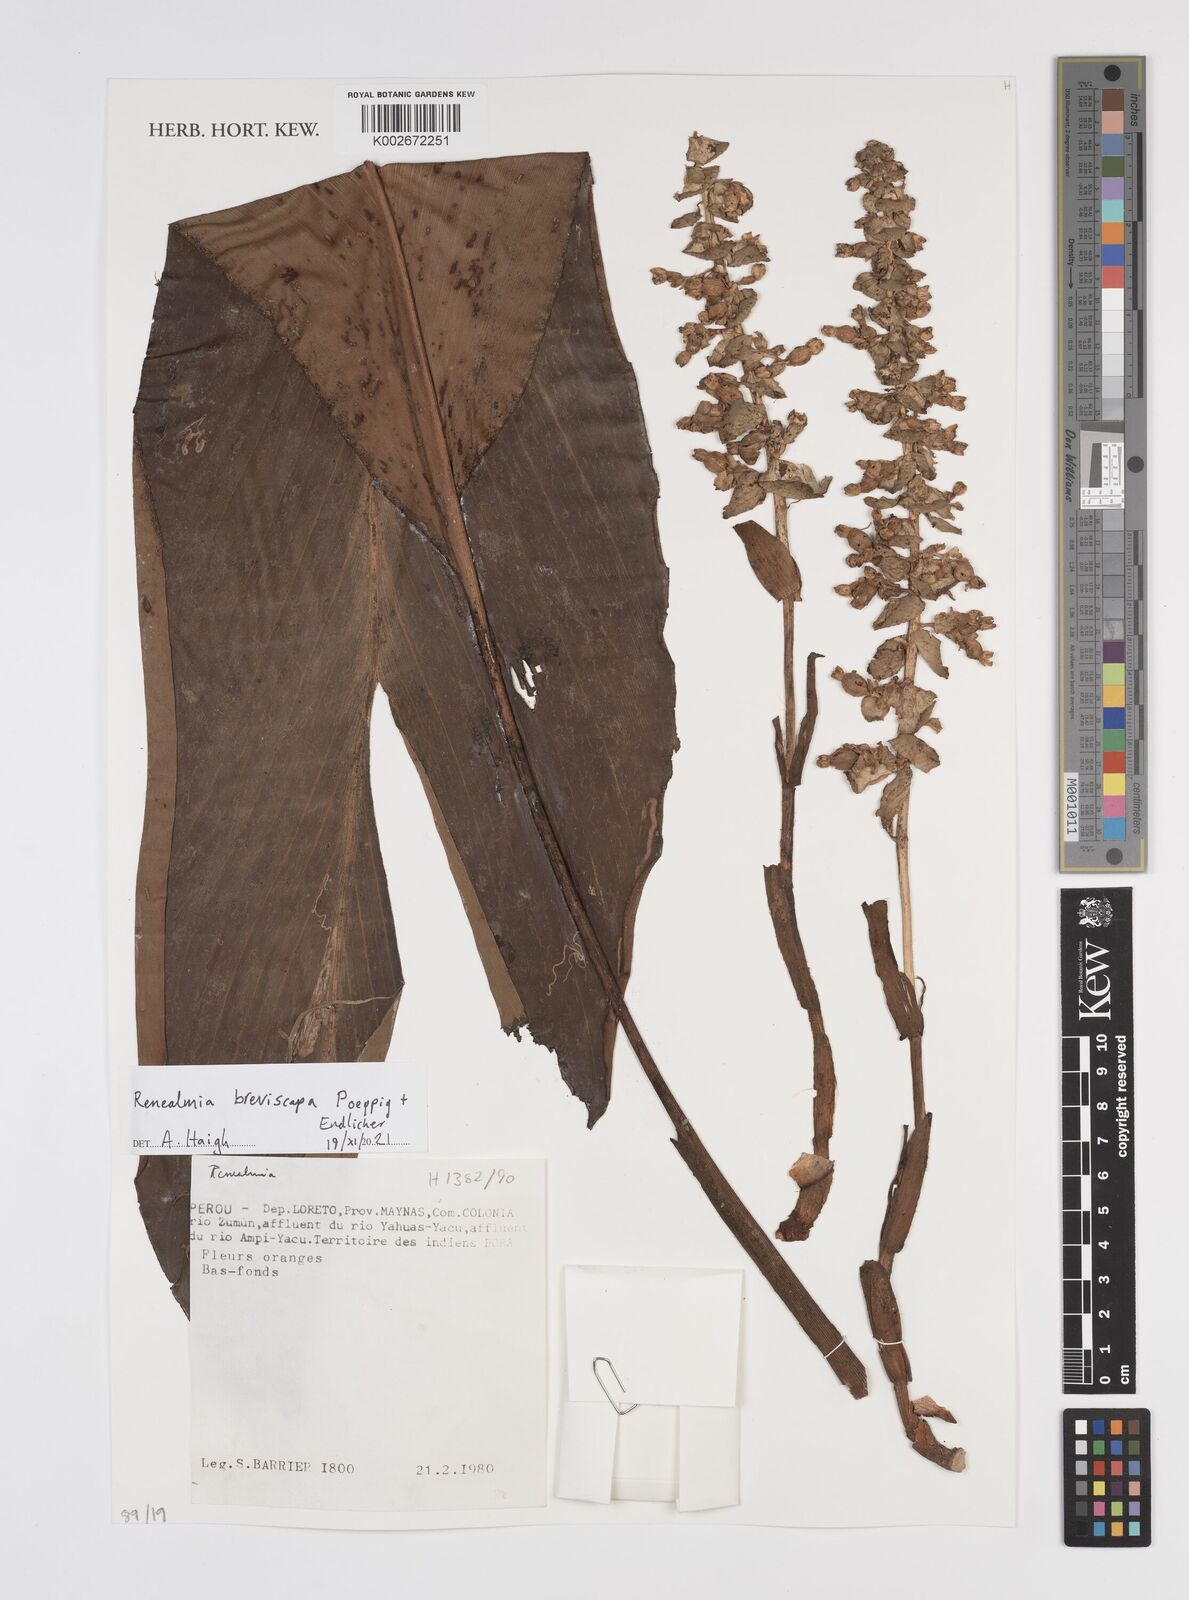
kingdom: Plantae
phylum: Tracheophyta
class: Liliopsida
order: Zingiberales
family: Zingiberaceae
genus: Renealmia
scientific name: Renealmia breviscapa
